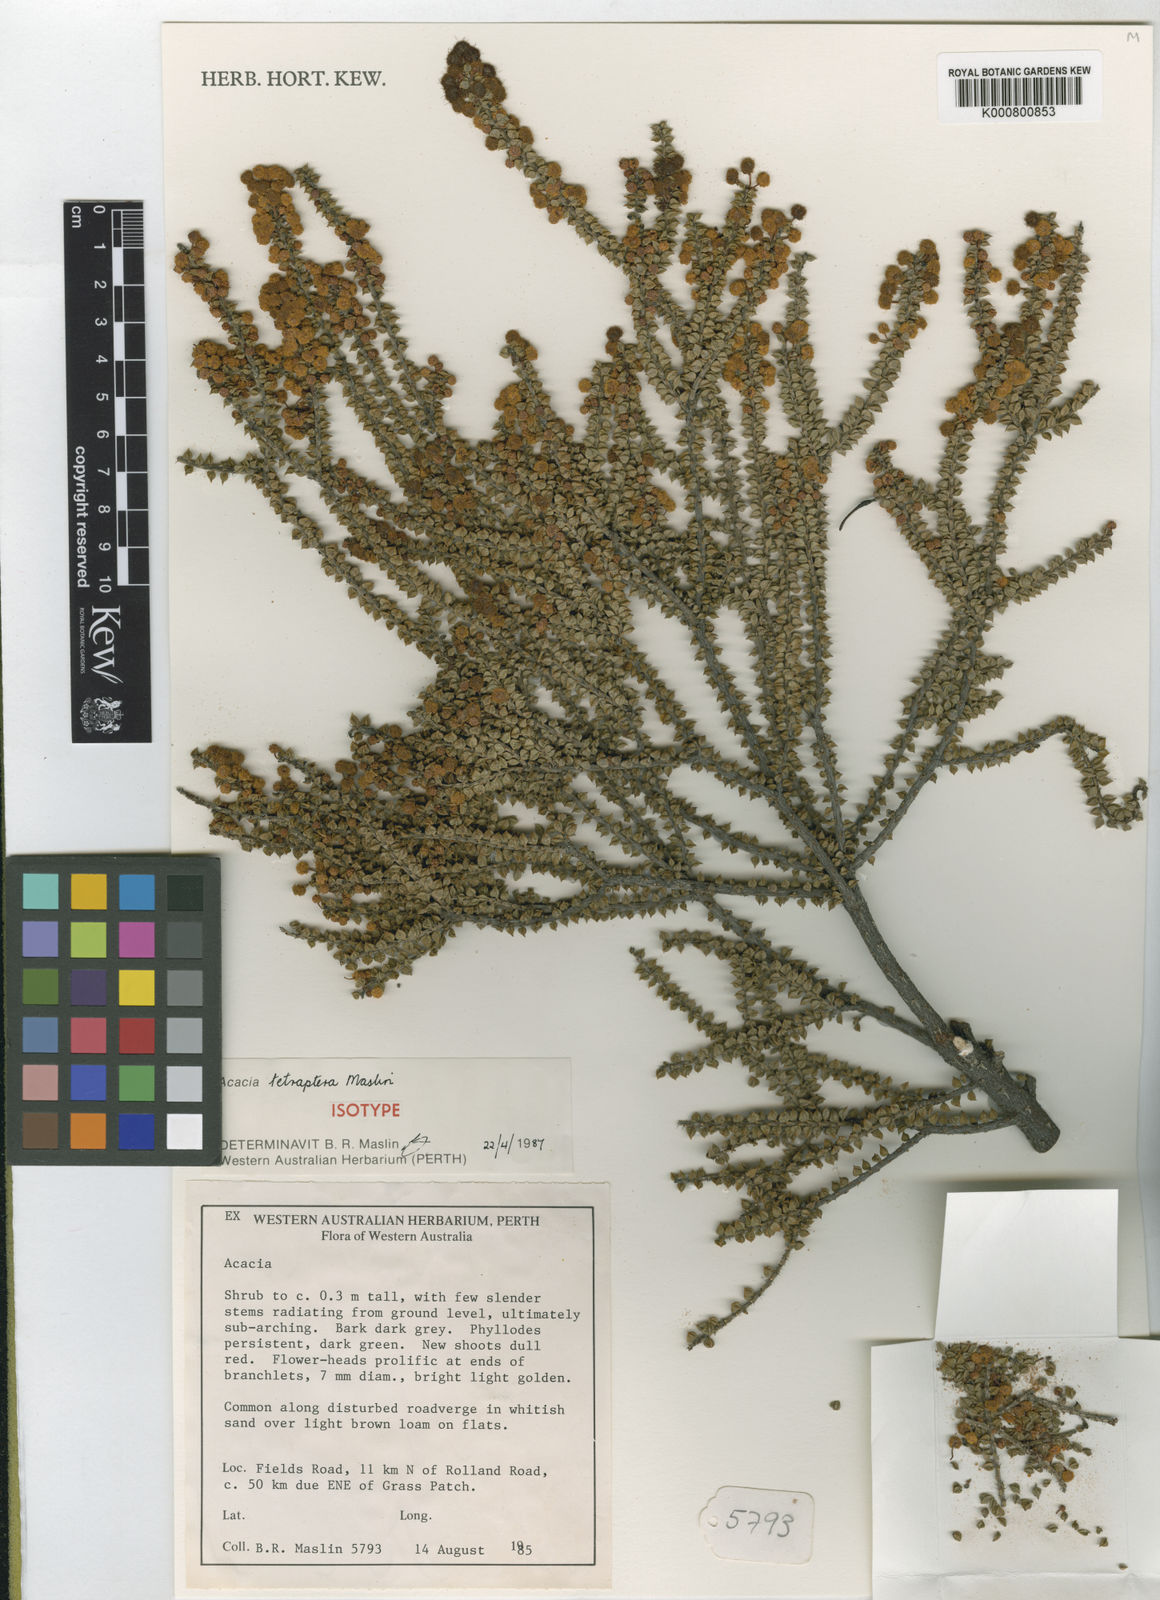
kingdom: Plantae
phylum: Tracheophyta
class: Magnoliopsida
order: Fabales
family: Fabaceae
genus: Acacia
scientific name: Acacia tetraptera
